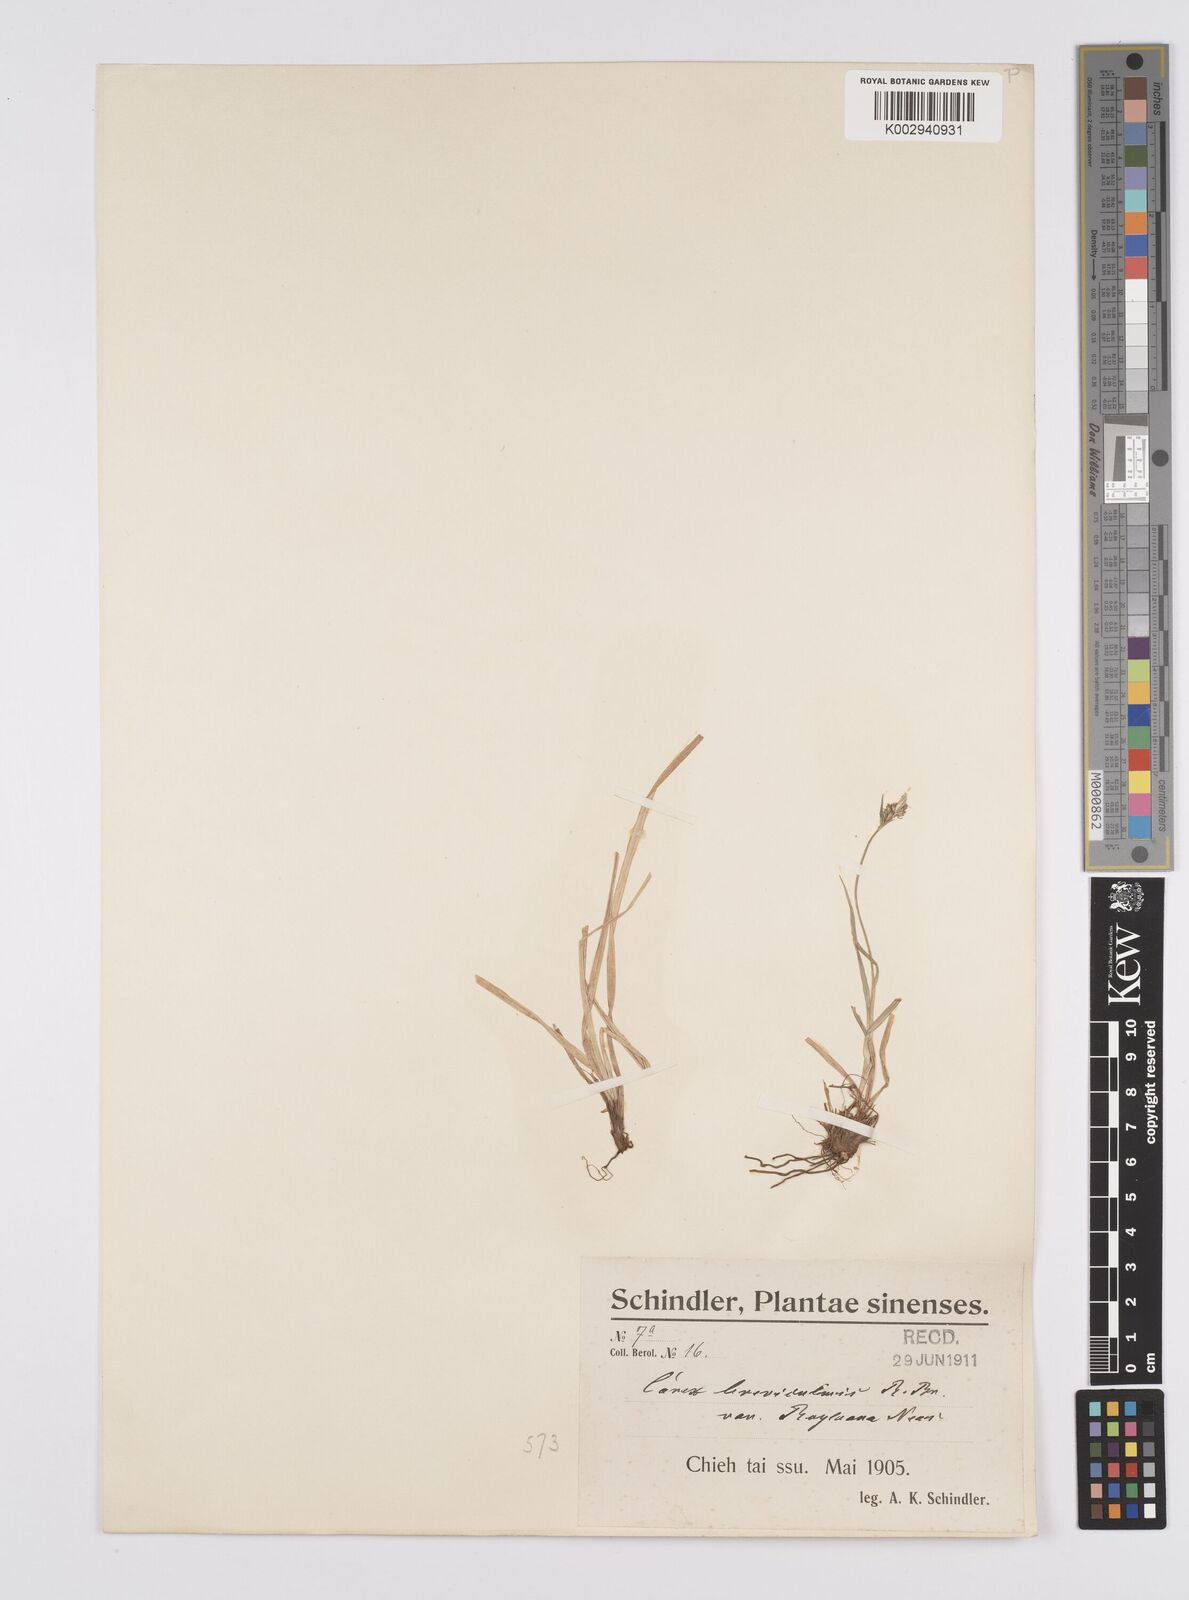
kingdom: Plantae
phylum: Tracheophyta
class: Liliopsida
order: Poales
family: Cyperaceae
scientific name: Cyperaceae
